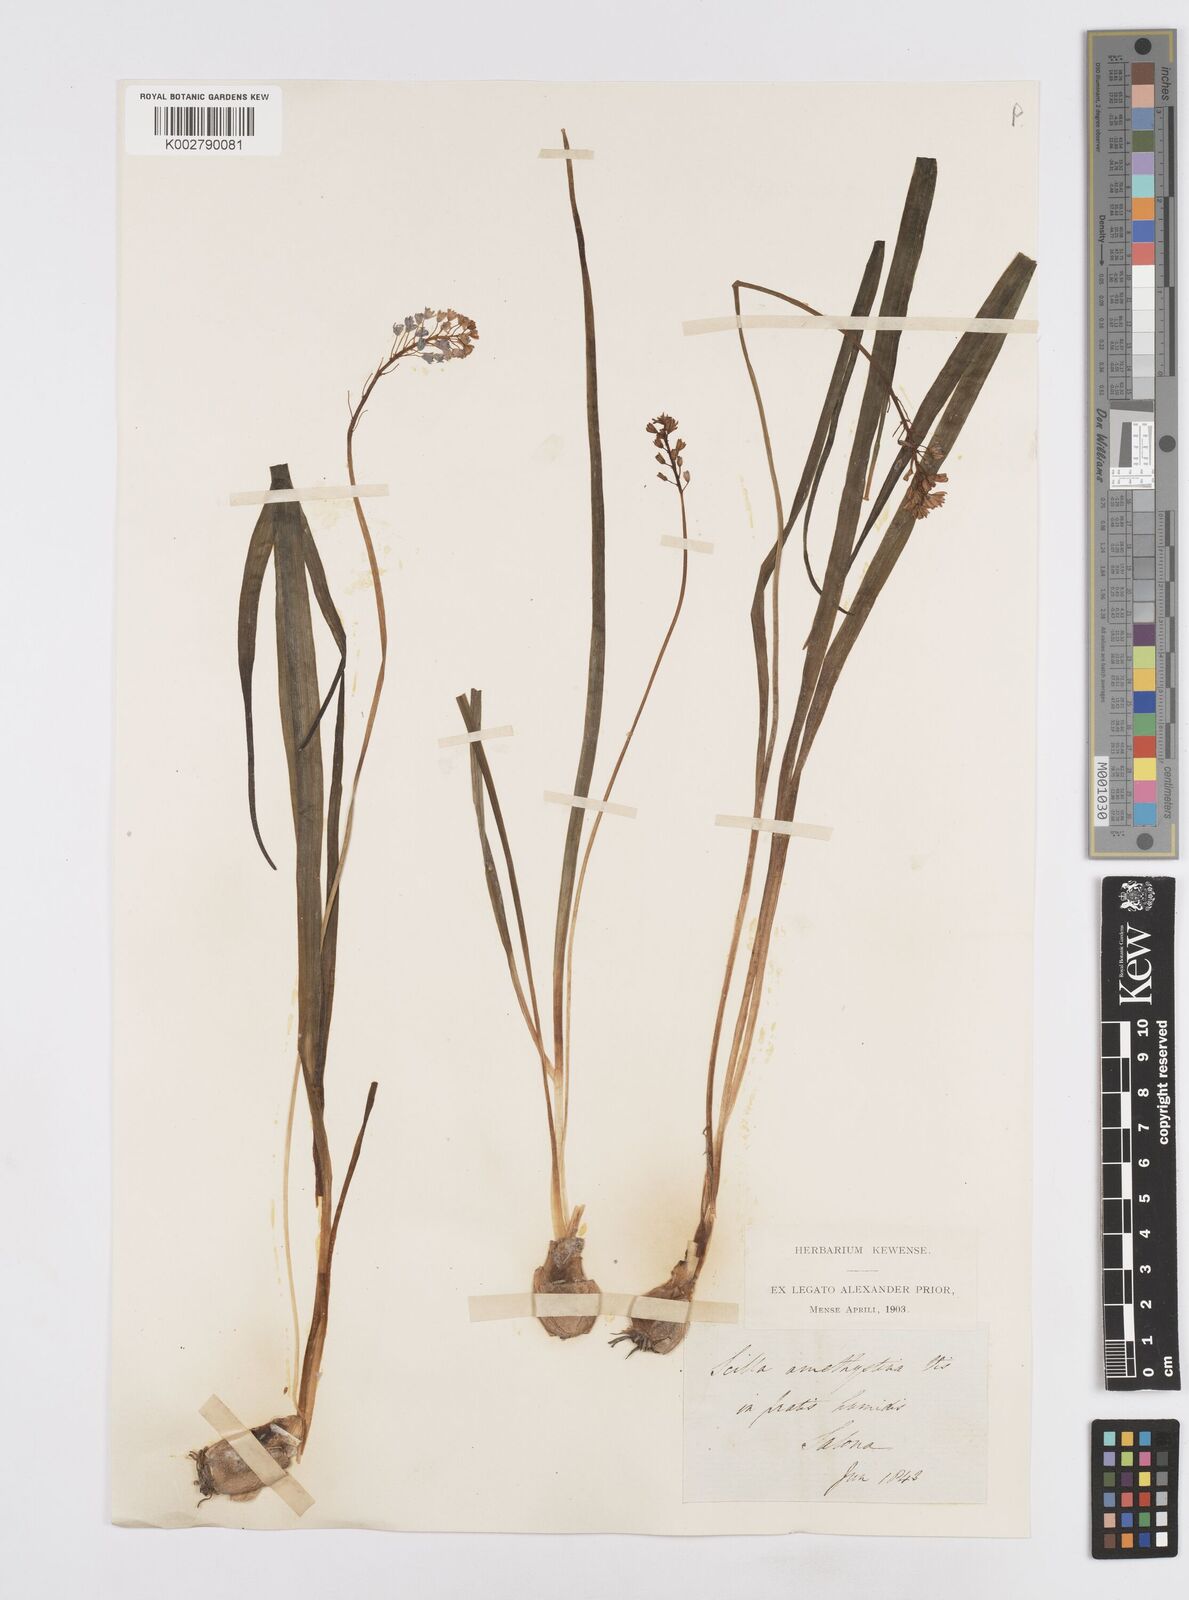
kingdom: Plantae
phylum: Tracheophyta
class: Liliopsida
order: Asparagales
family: Asparagaceae
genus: Scilla
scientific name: Scilla litardierei
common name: Amethyst meadow squill
